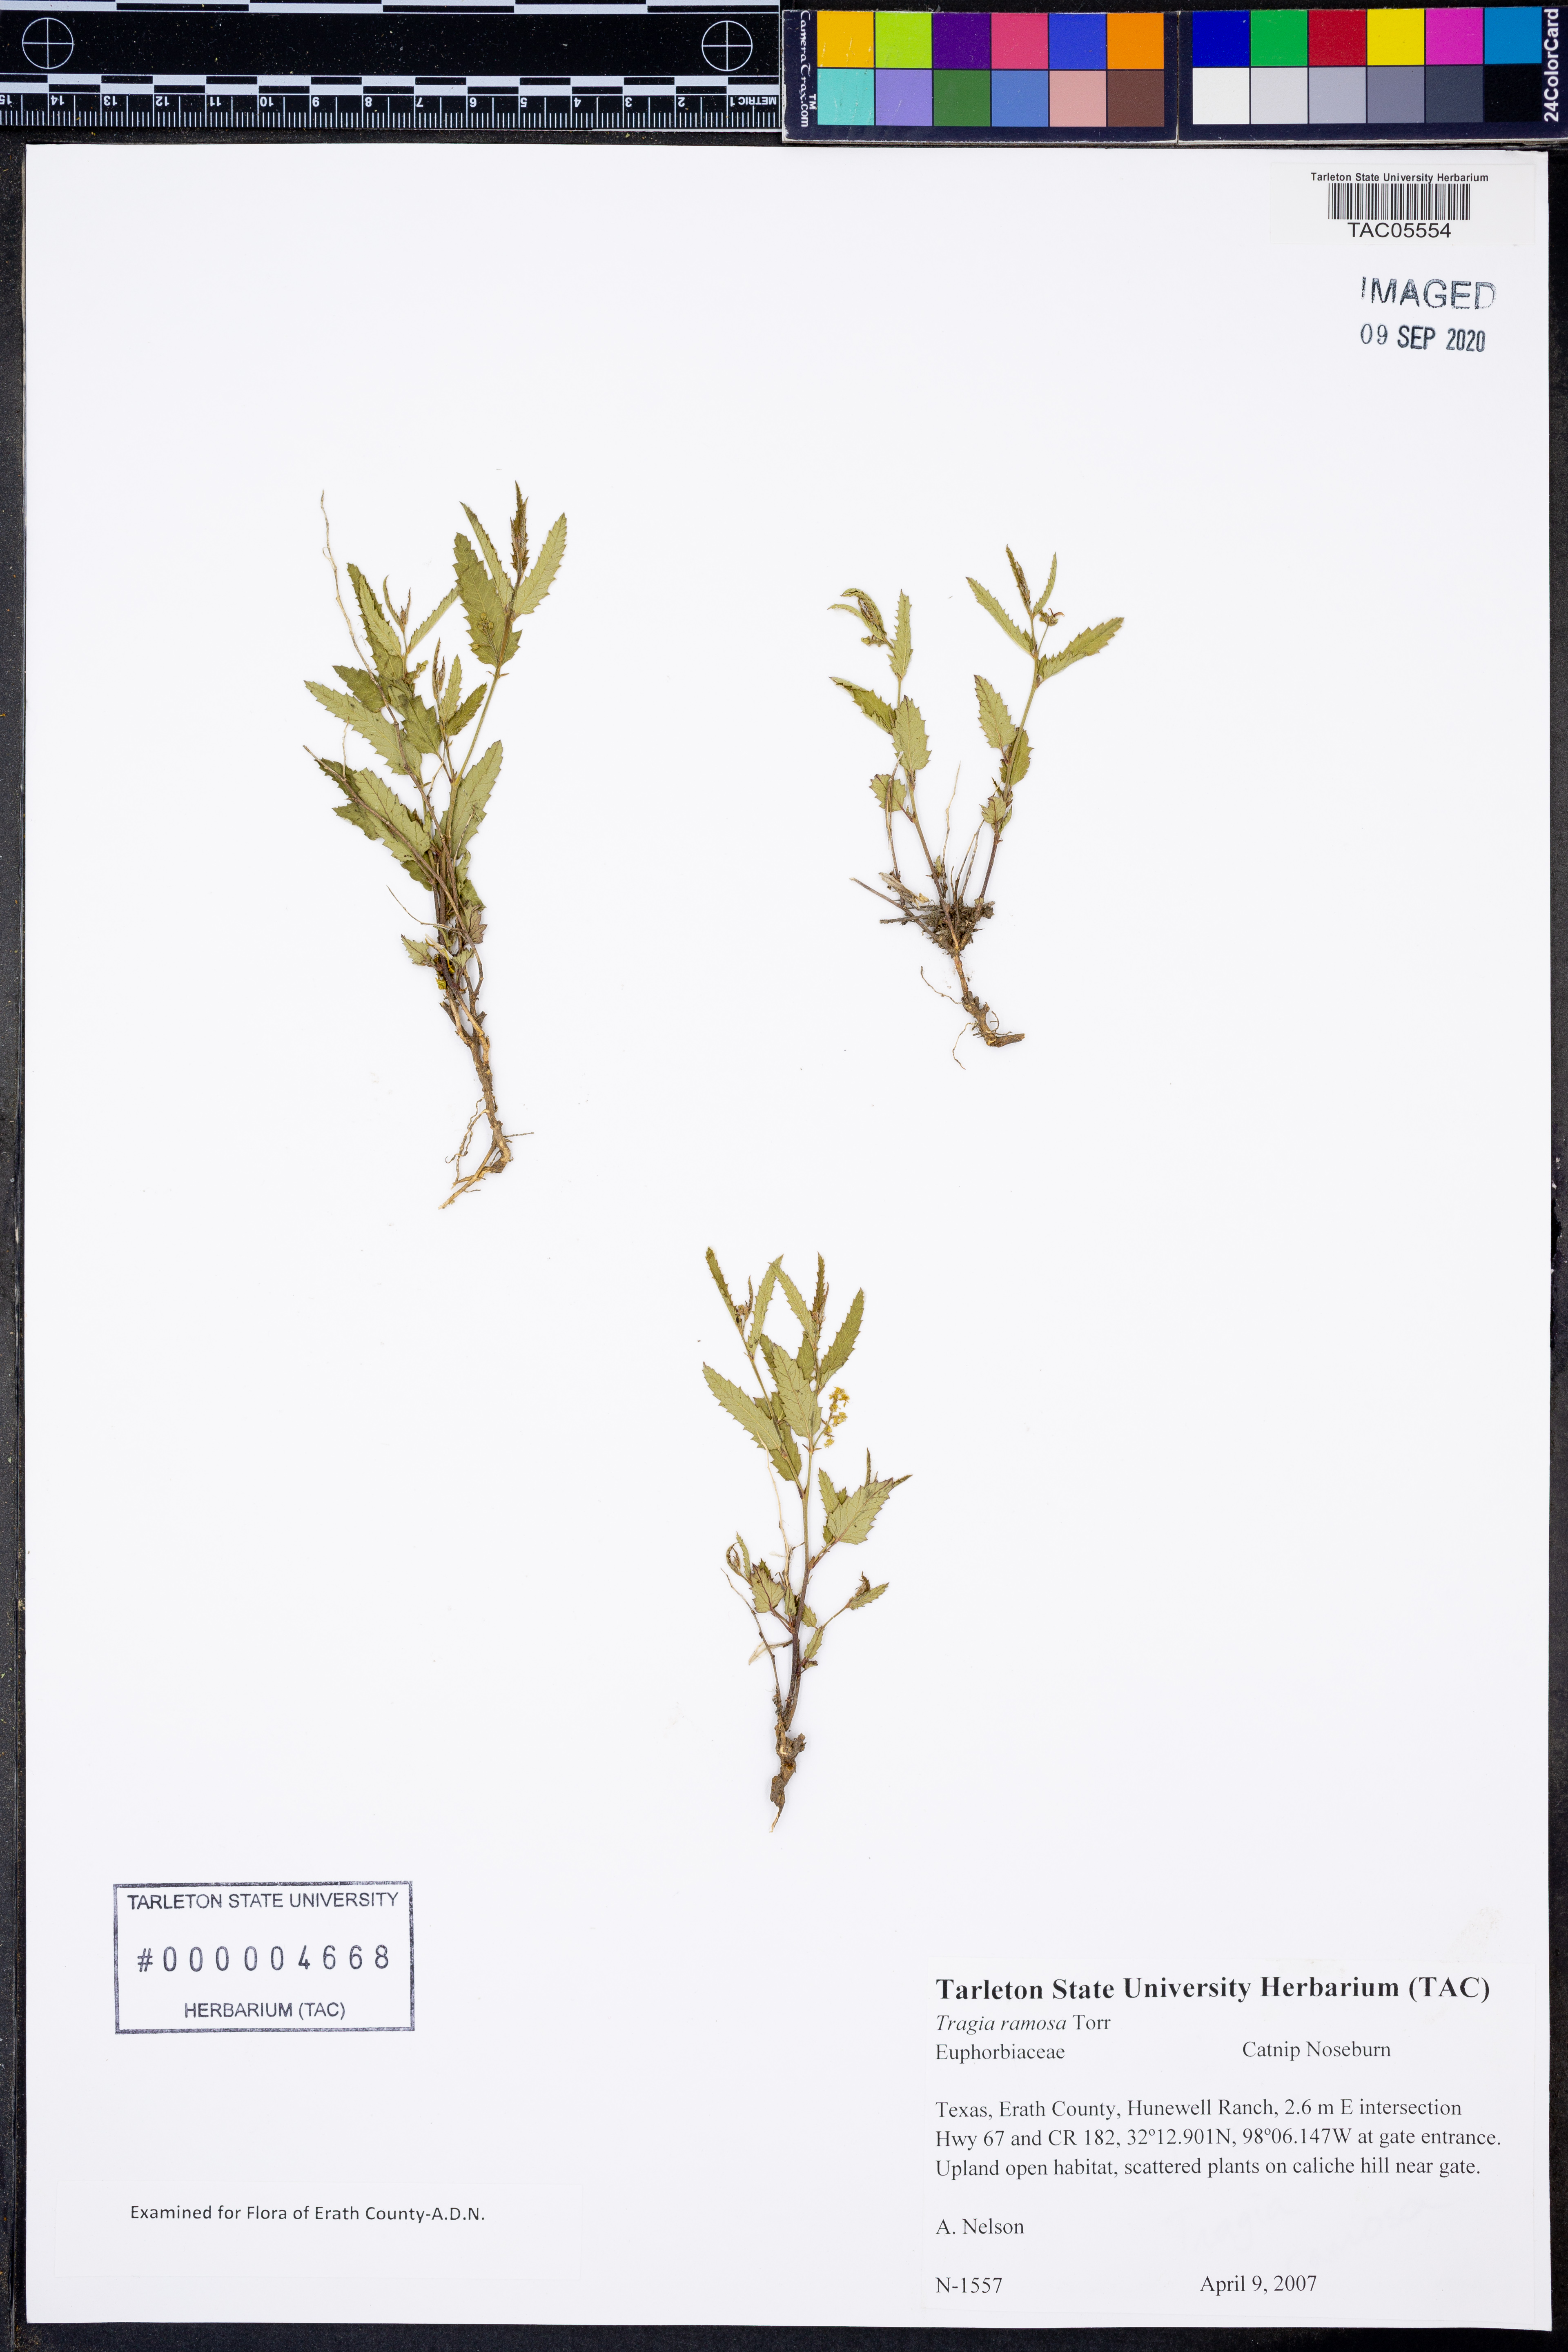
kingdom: Plantae
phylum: Tracheophyta
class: Magnoliopsida
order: Malpighiales
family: Euphorbiaceae
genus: Tragia
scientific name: Tragia ramosa
